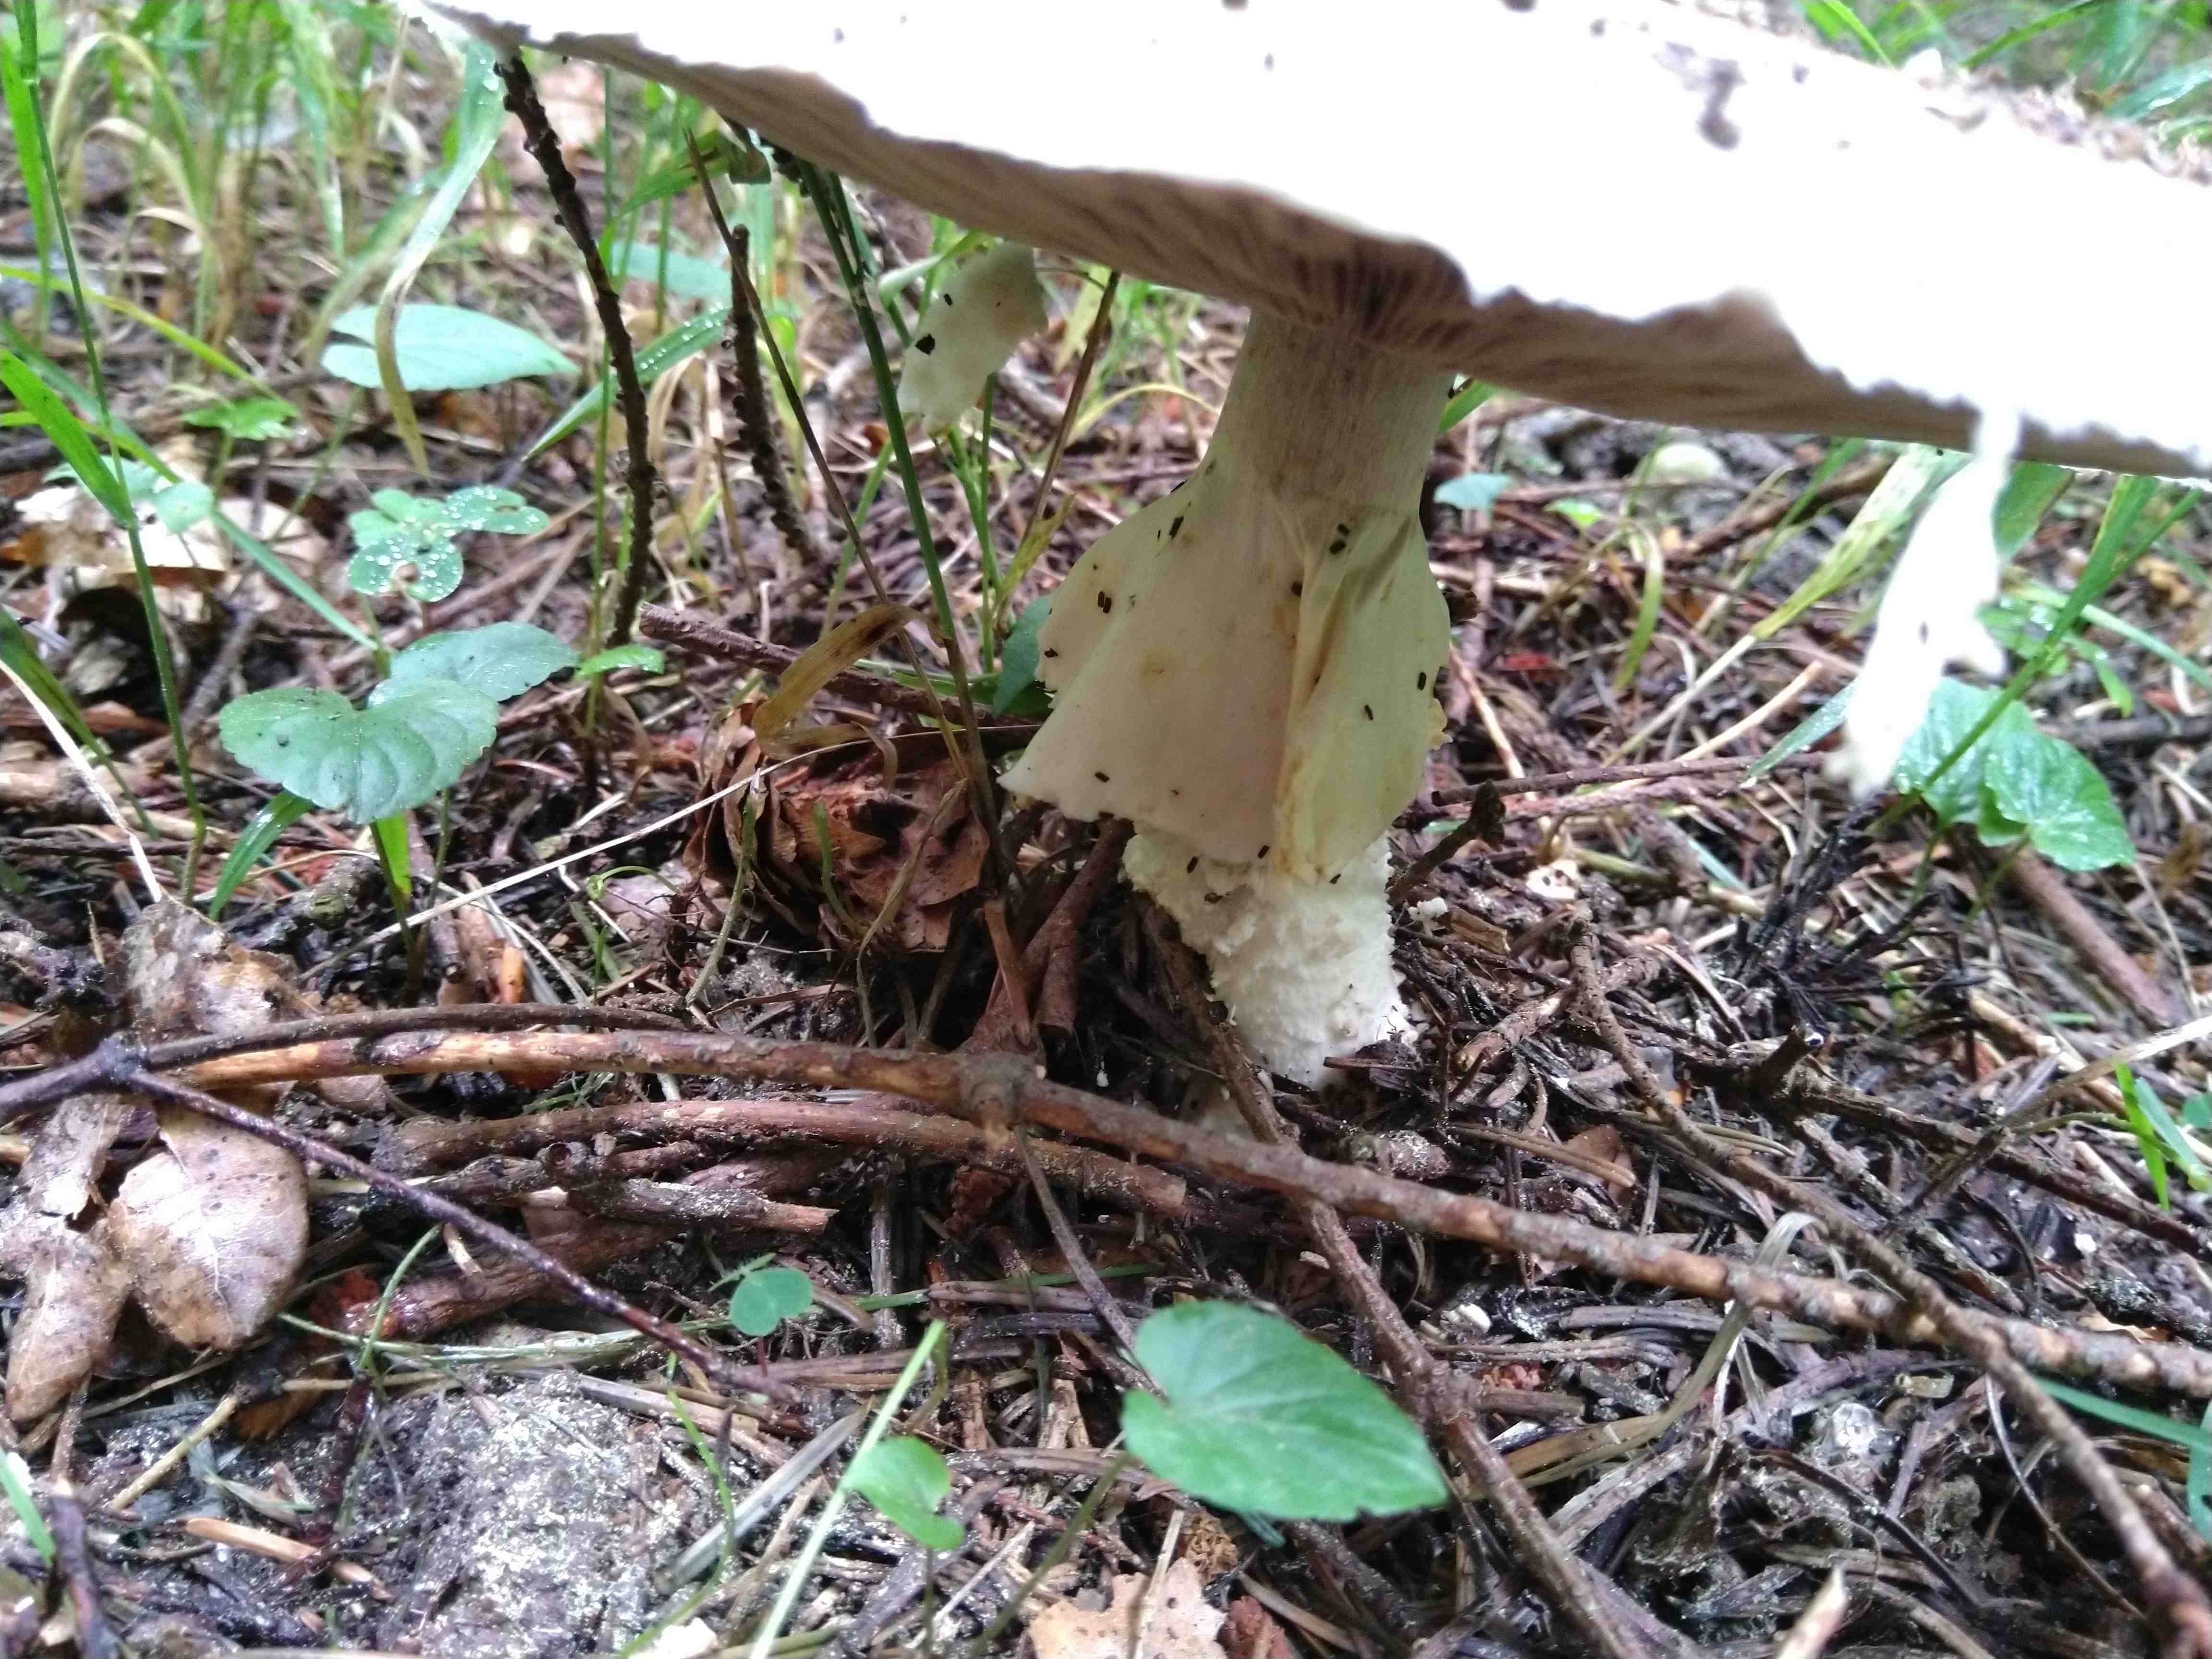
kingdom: Fungi
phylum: Basidiomycota
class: Agaricomycetes
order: Agaricales
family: Agaricaceae
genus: Agaricus
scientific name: Agaricus augustus
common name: prægtig champignon
